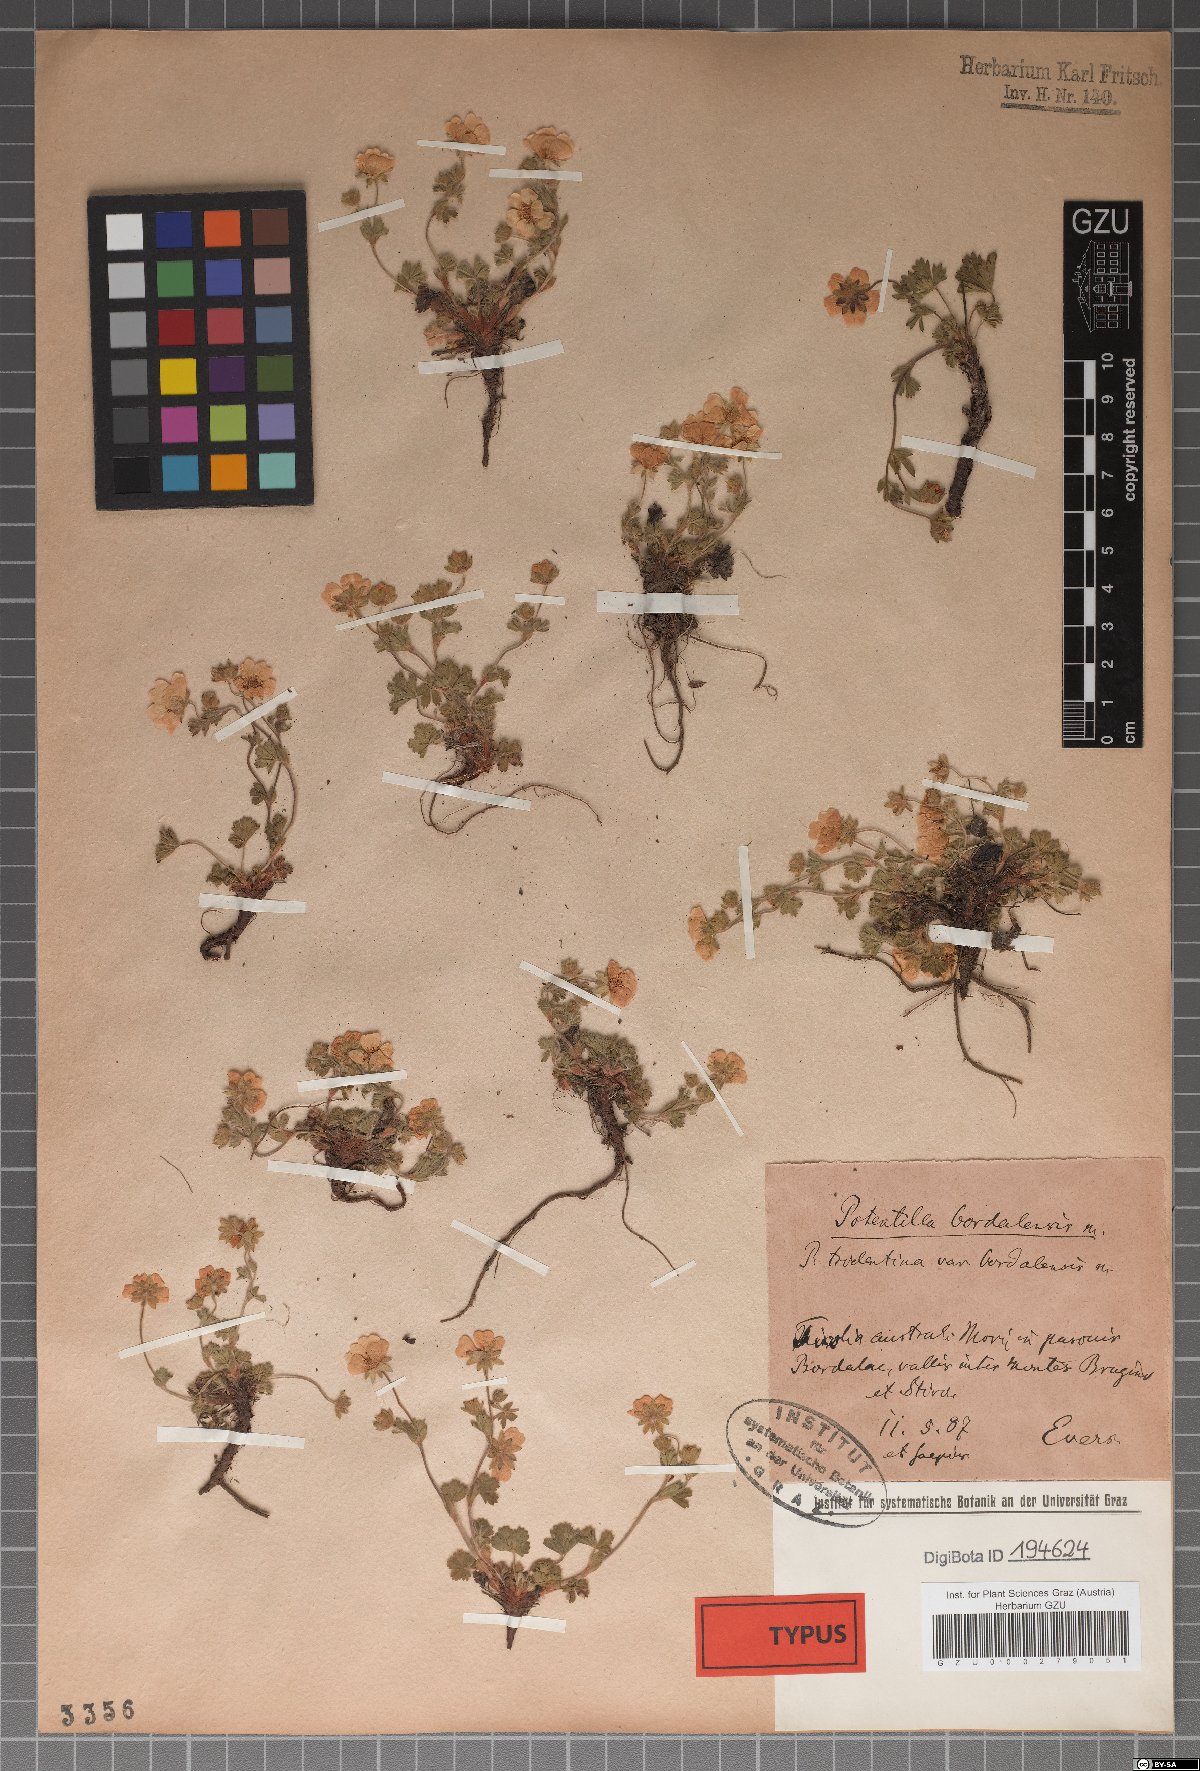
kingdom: Plantae
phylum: Tracheophyta
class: Magnoliopsida
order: Rosales
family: Rosaceae
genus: Potentilla
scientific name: Potentilla crantzii
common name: Alpine cinquefoil
